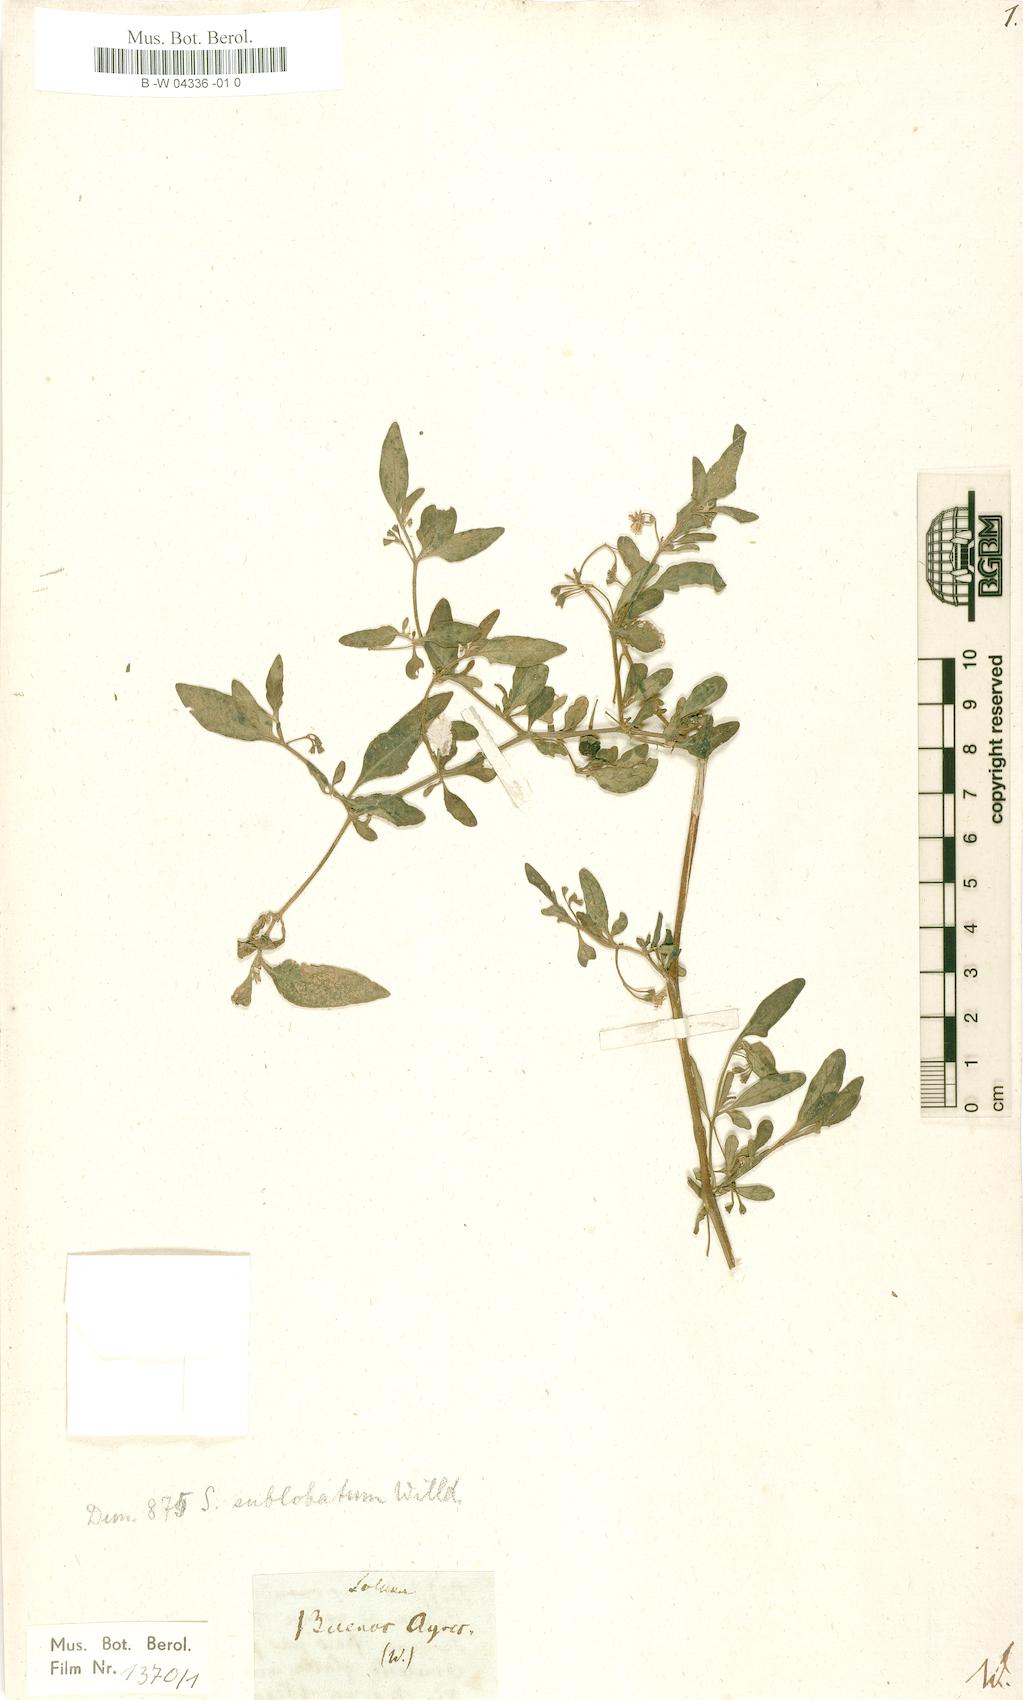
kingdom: Plantae
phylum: Tracheophyta
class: Magnoliopsida
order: Solanales
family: Solanaceae
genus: Solanum
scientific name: Solanum chenopodioides
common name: Tall nightshade
